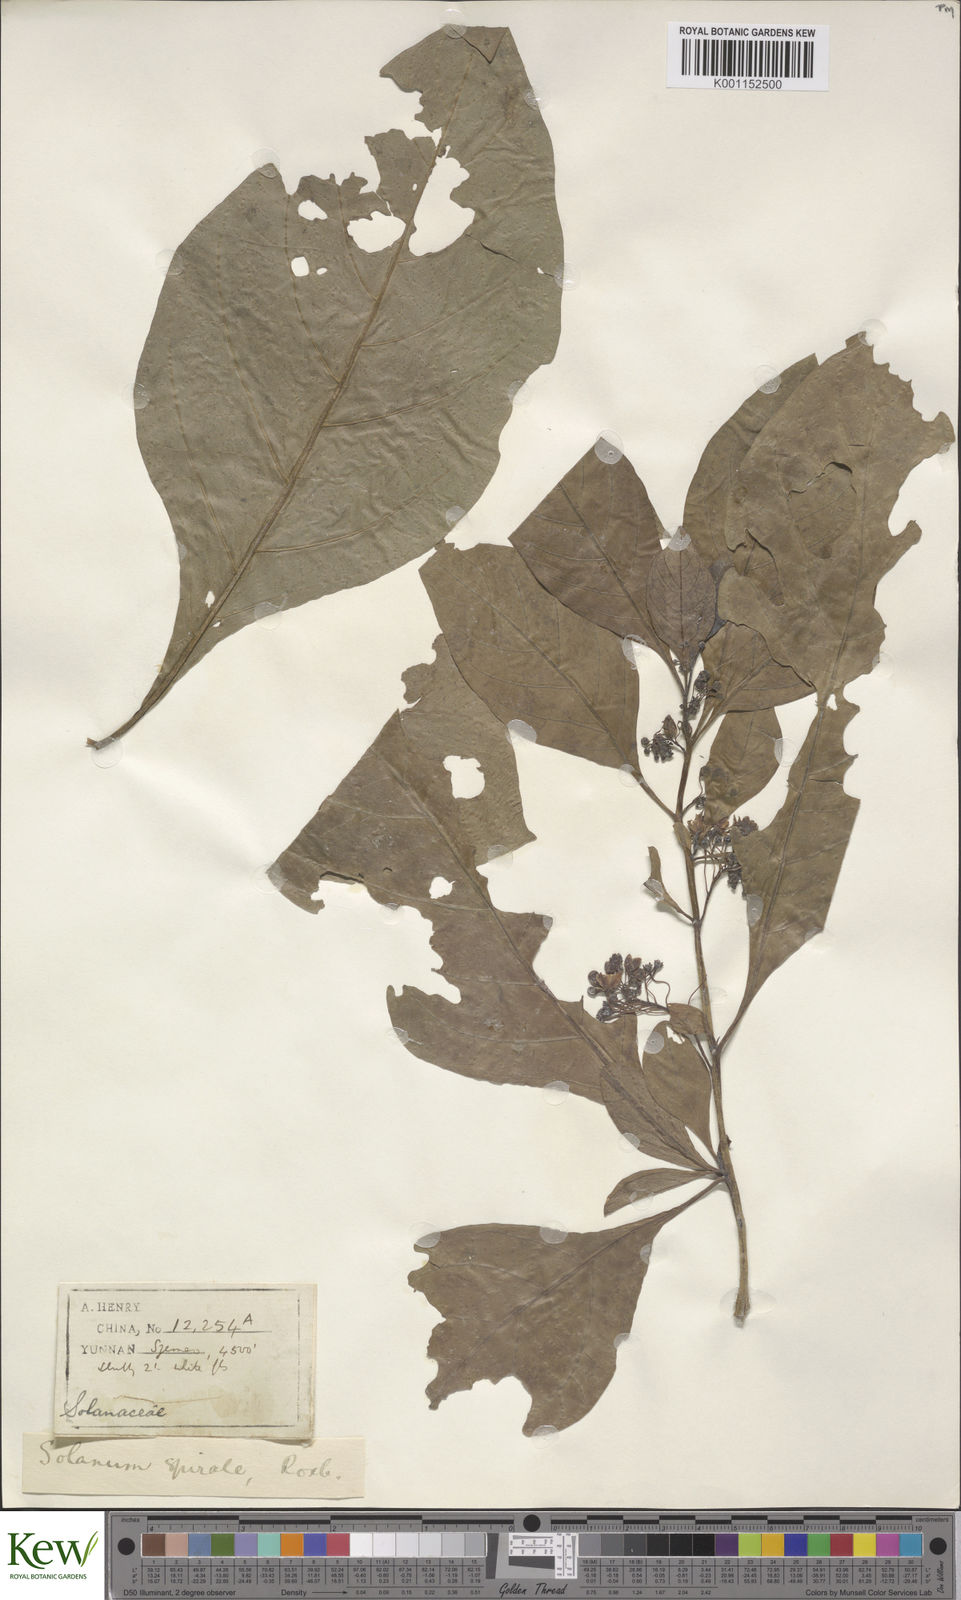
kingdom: Plantae
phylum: Tracheophyta
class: Magnoliopsida
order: Solanales
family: Solanaceae
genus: Solanum
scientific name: Solanum spirale
